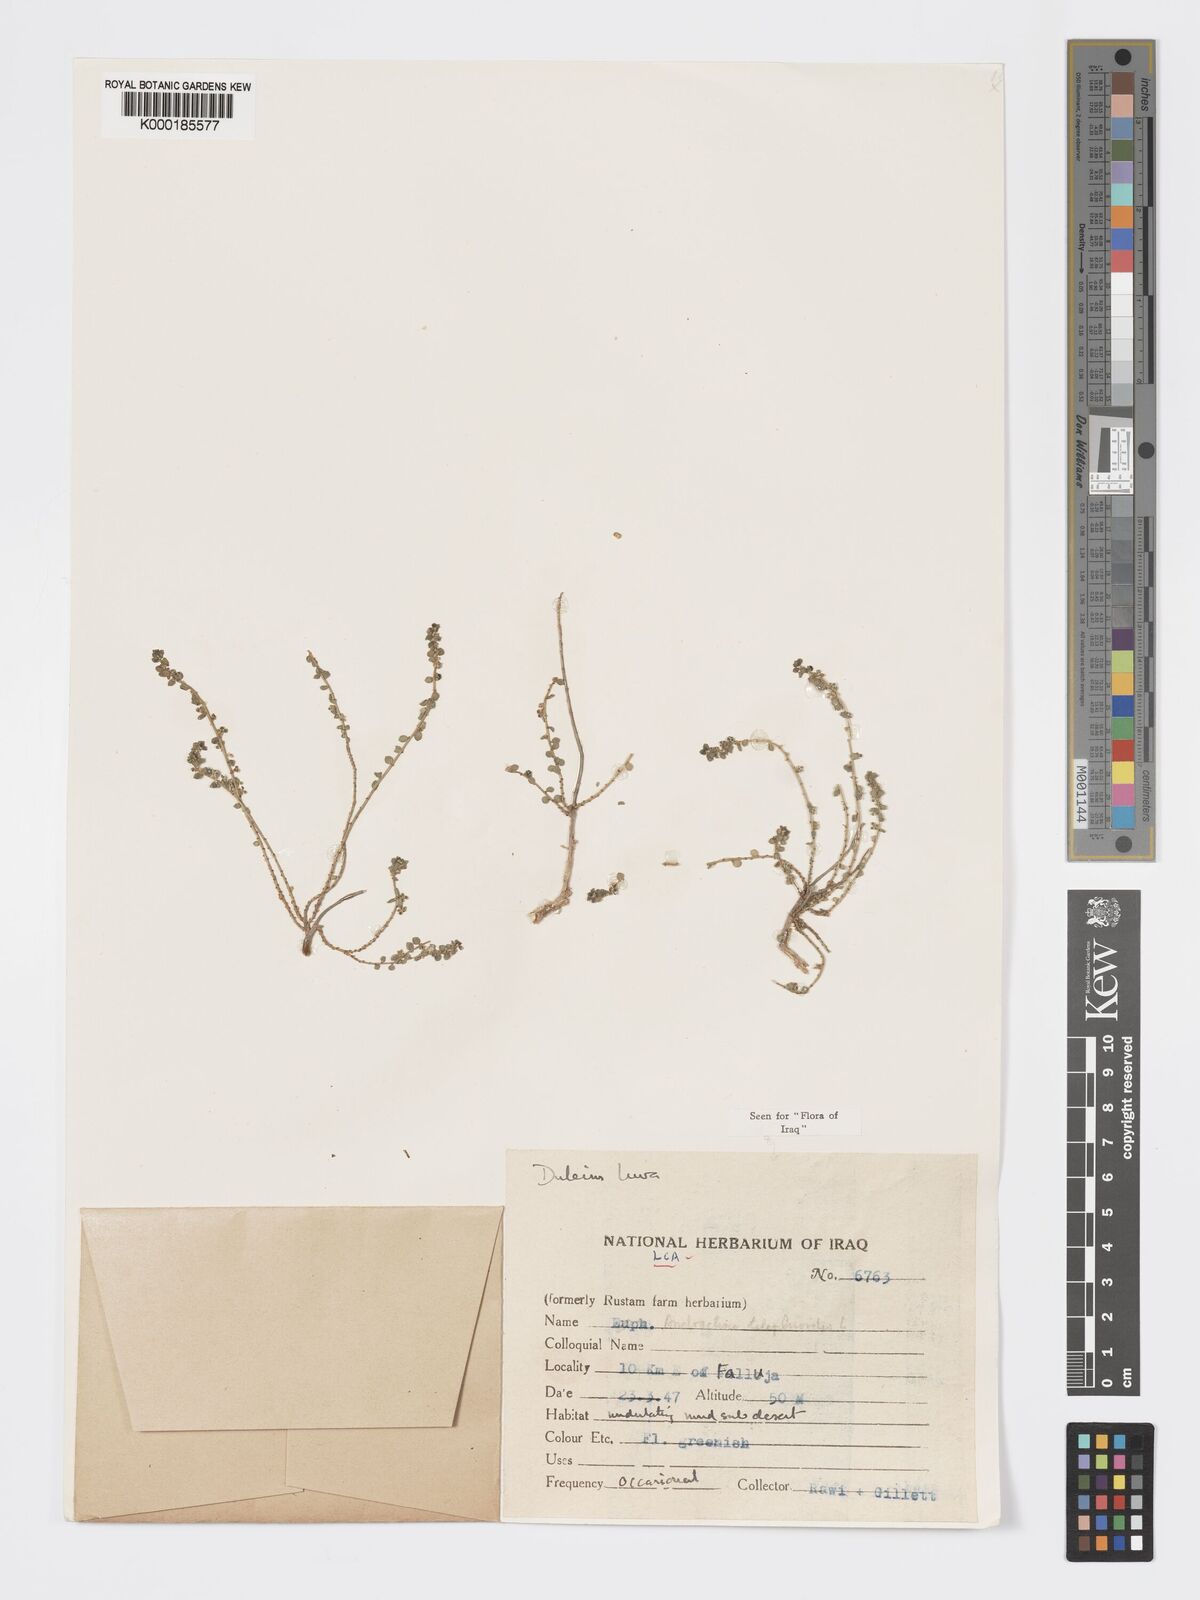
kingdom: Plantae
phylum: Tracheophyta
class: Magnoliopsida
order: Malpighiales
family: Phyllanthaceae
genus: Andrachne
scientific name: Andrachne telephioides
